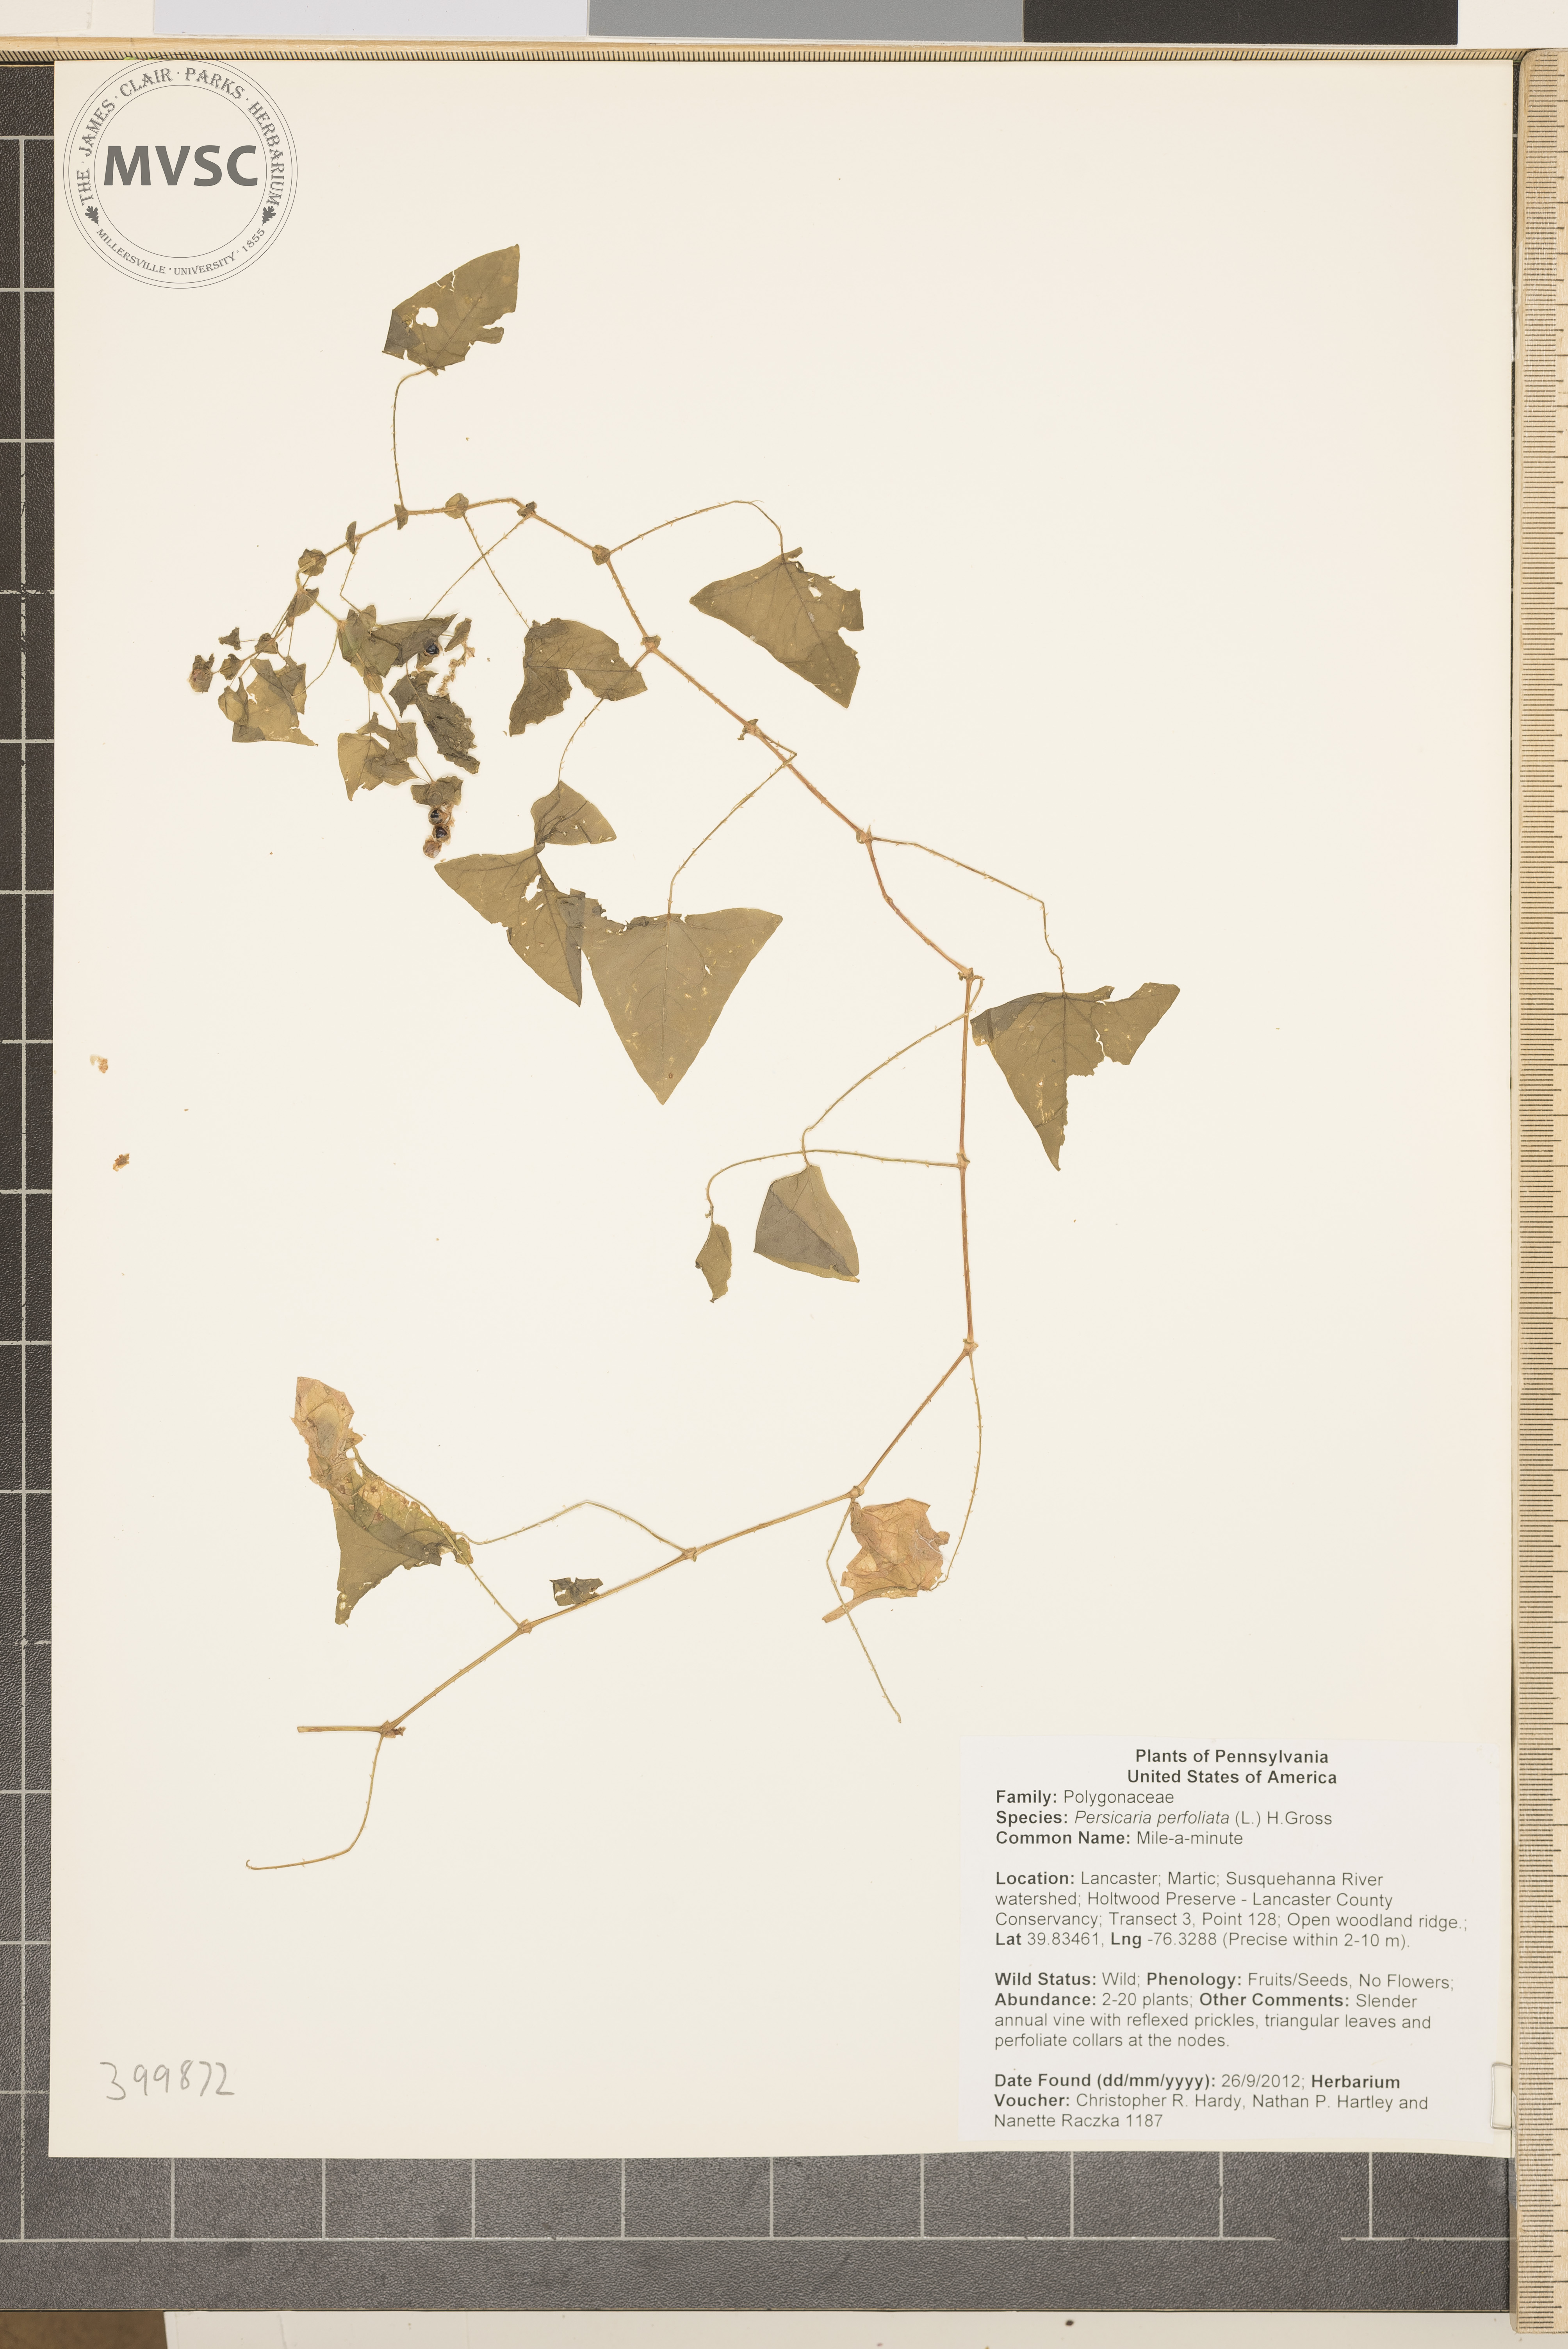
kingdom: Plantae
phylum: Tracheophyta
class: Magnoliopsida
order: Caryophyllales
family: Polygonaceae
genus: Persicaria
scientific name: Persicaria perfoliata
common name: Mile-a-minute
